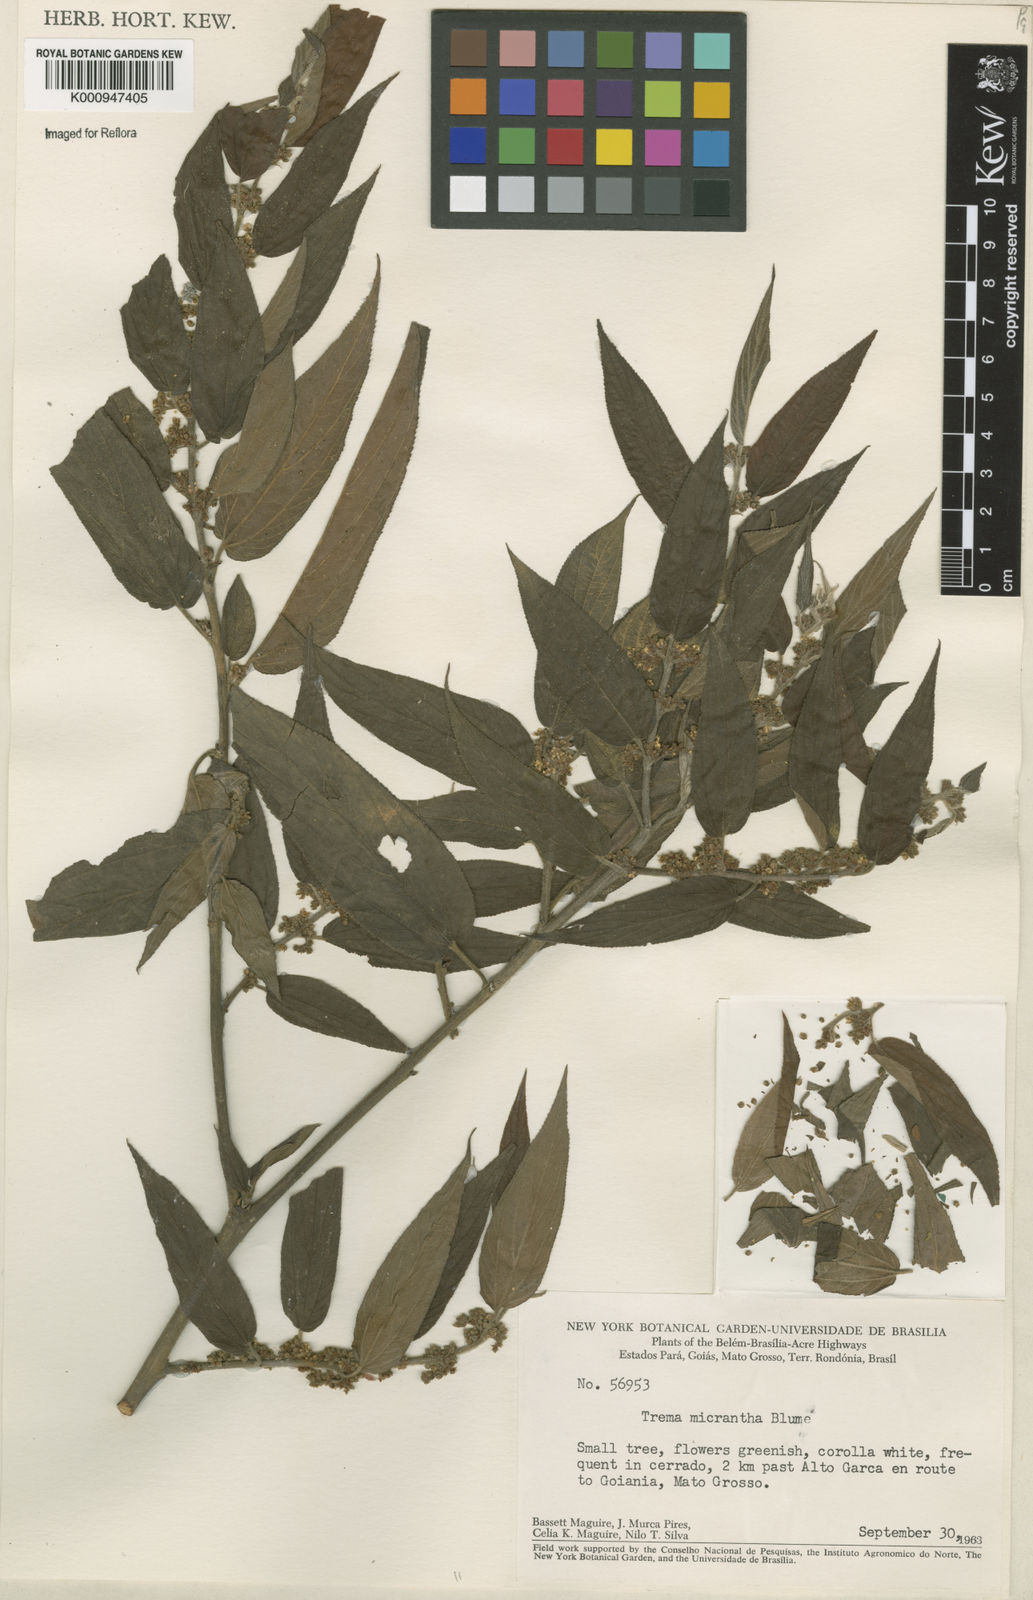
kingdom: Plantae
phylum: Tracheophyta
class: Magnoliopsida
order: Rosales
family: Cannabaceae
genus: Trema
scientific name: Trema micranthum
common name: Jamaican nettletree
